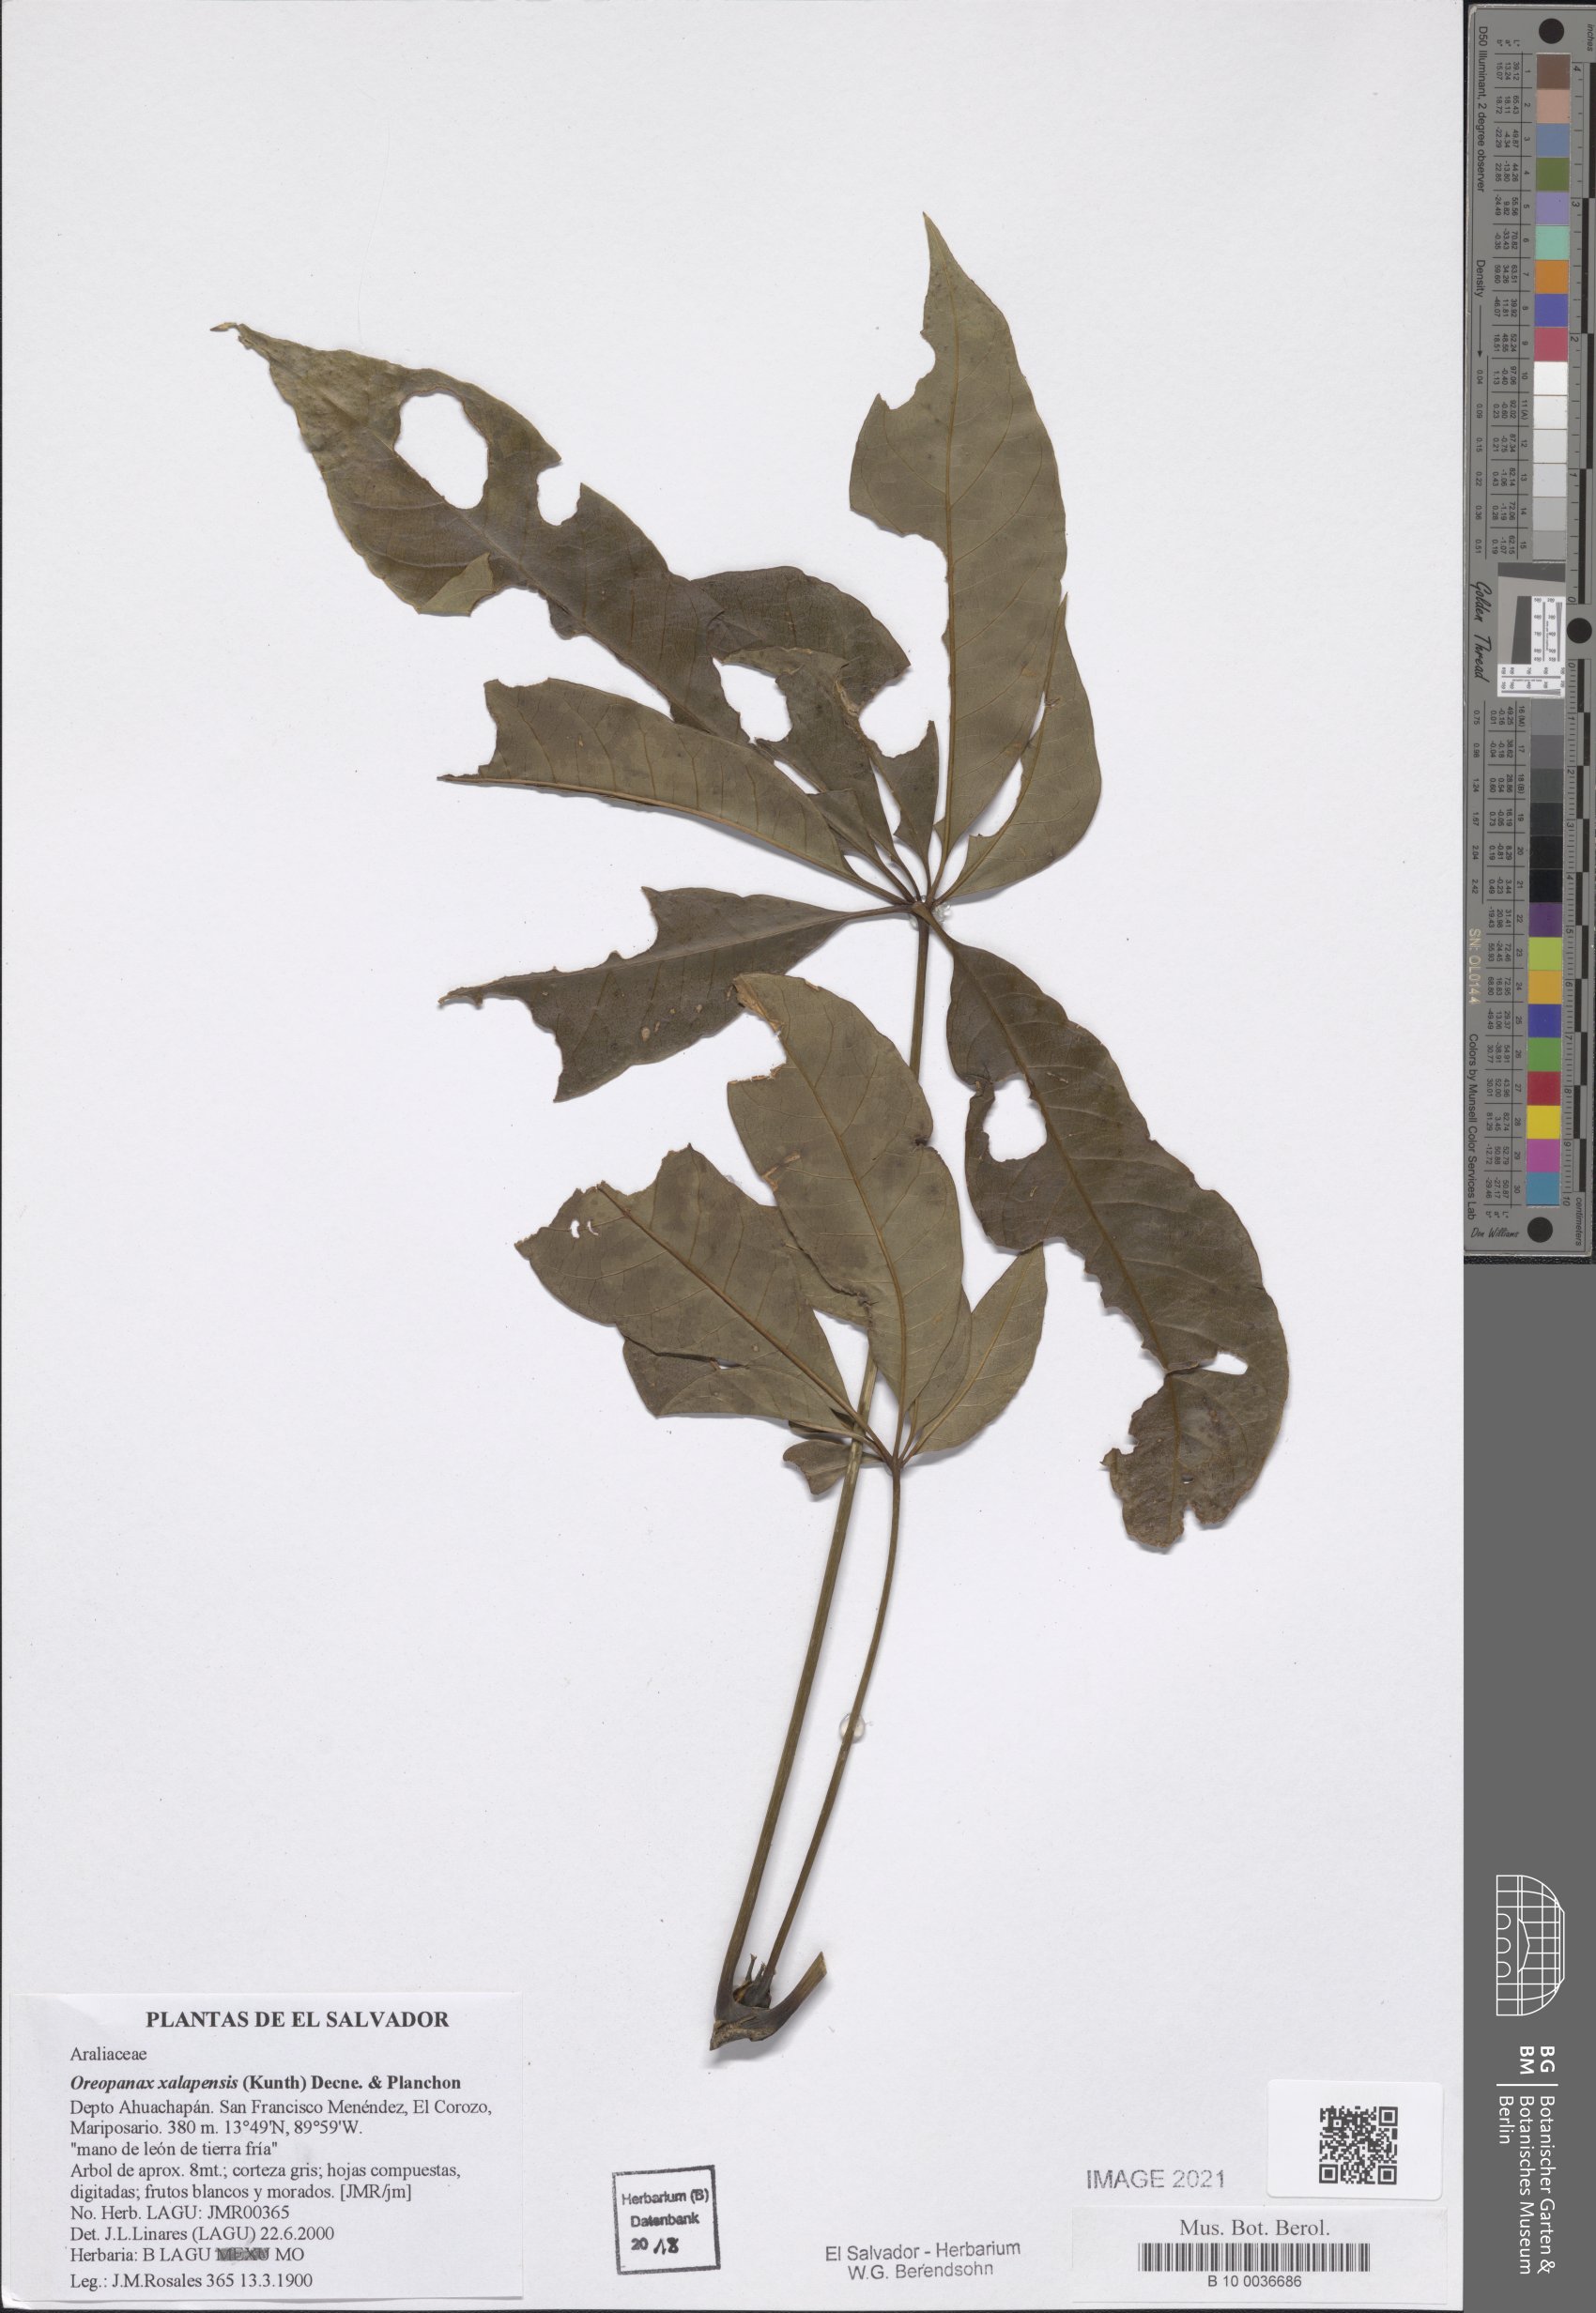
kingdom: Plantae
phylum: Tracheophyta
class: Magnoliopsida
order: Apiales
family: Araliaceae
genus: Oreopanax
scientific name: Oreopanax xalapensis
